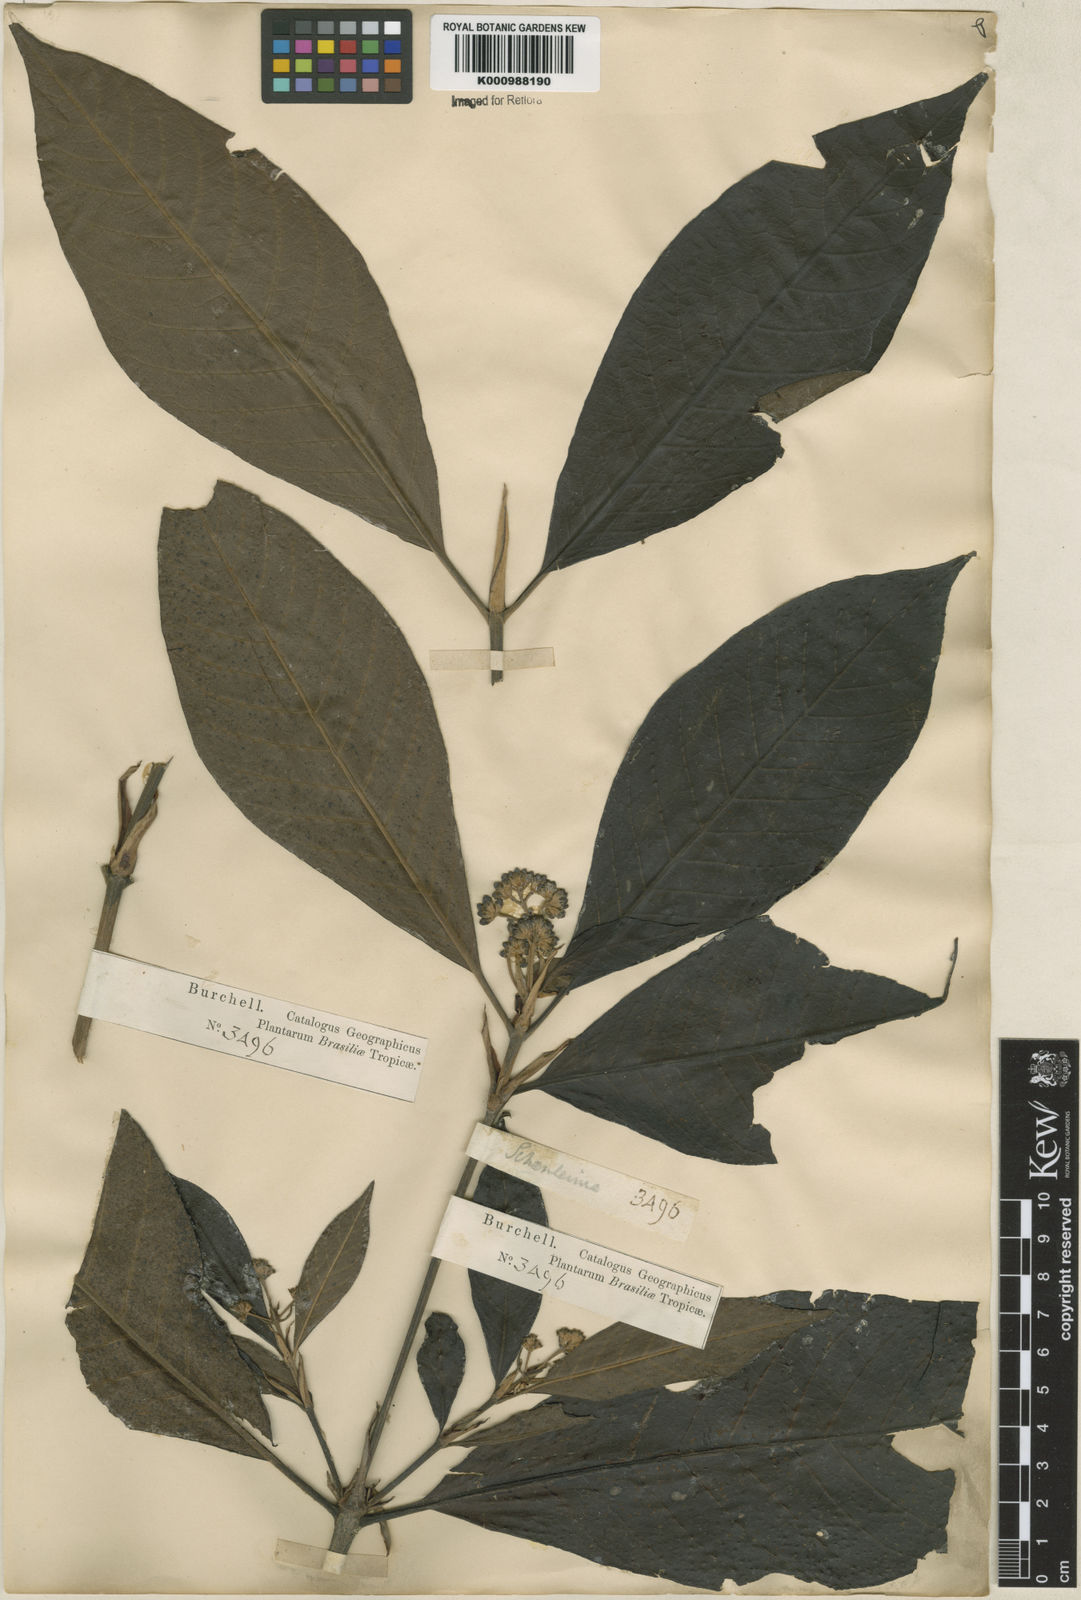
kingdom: Plantae
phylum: Tracheophyta
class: Magnoliopsida
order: Gentianales
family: Rubiaceae
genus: Bathysa
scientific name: Bathysa
